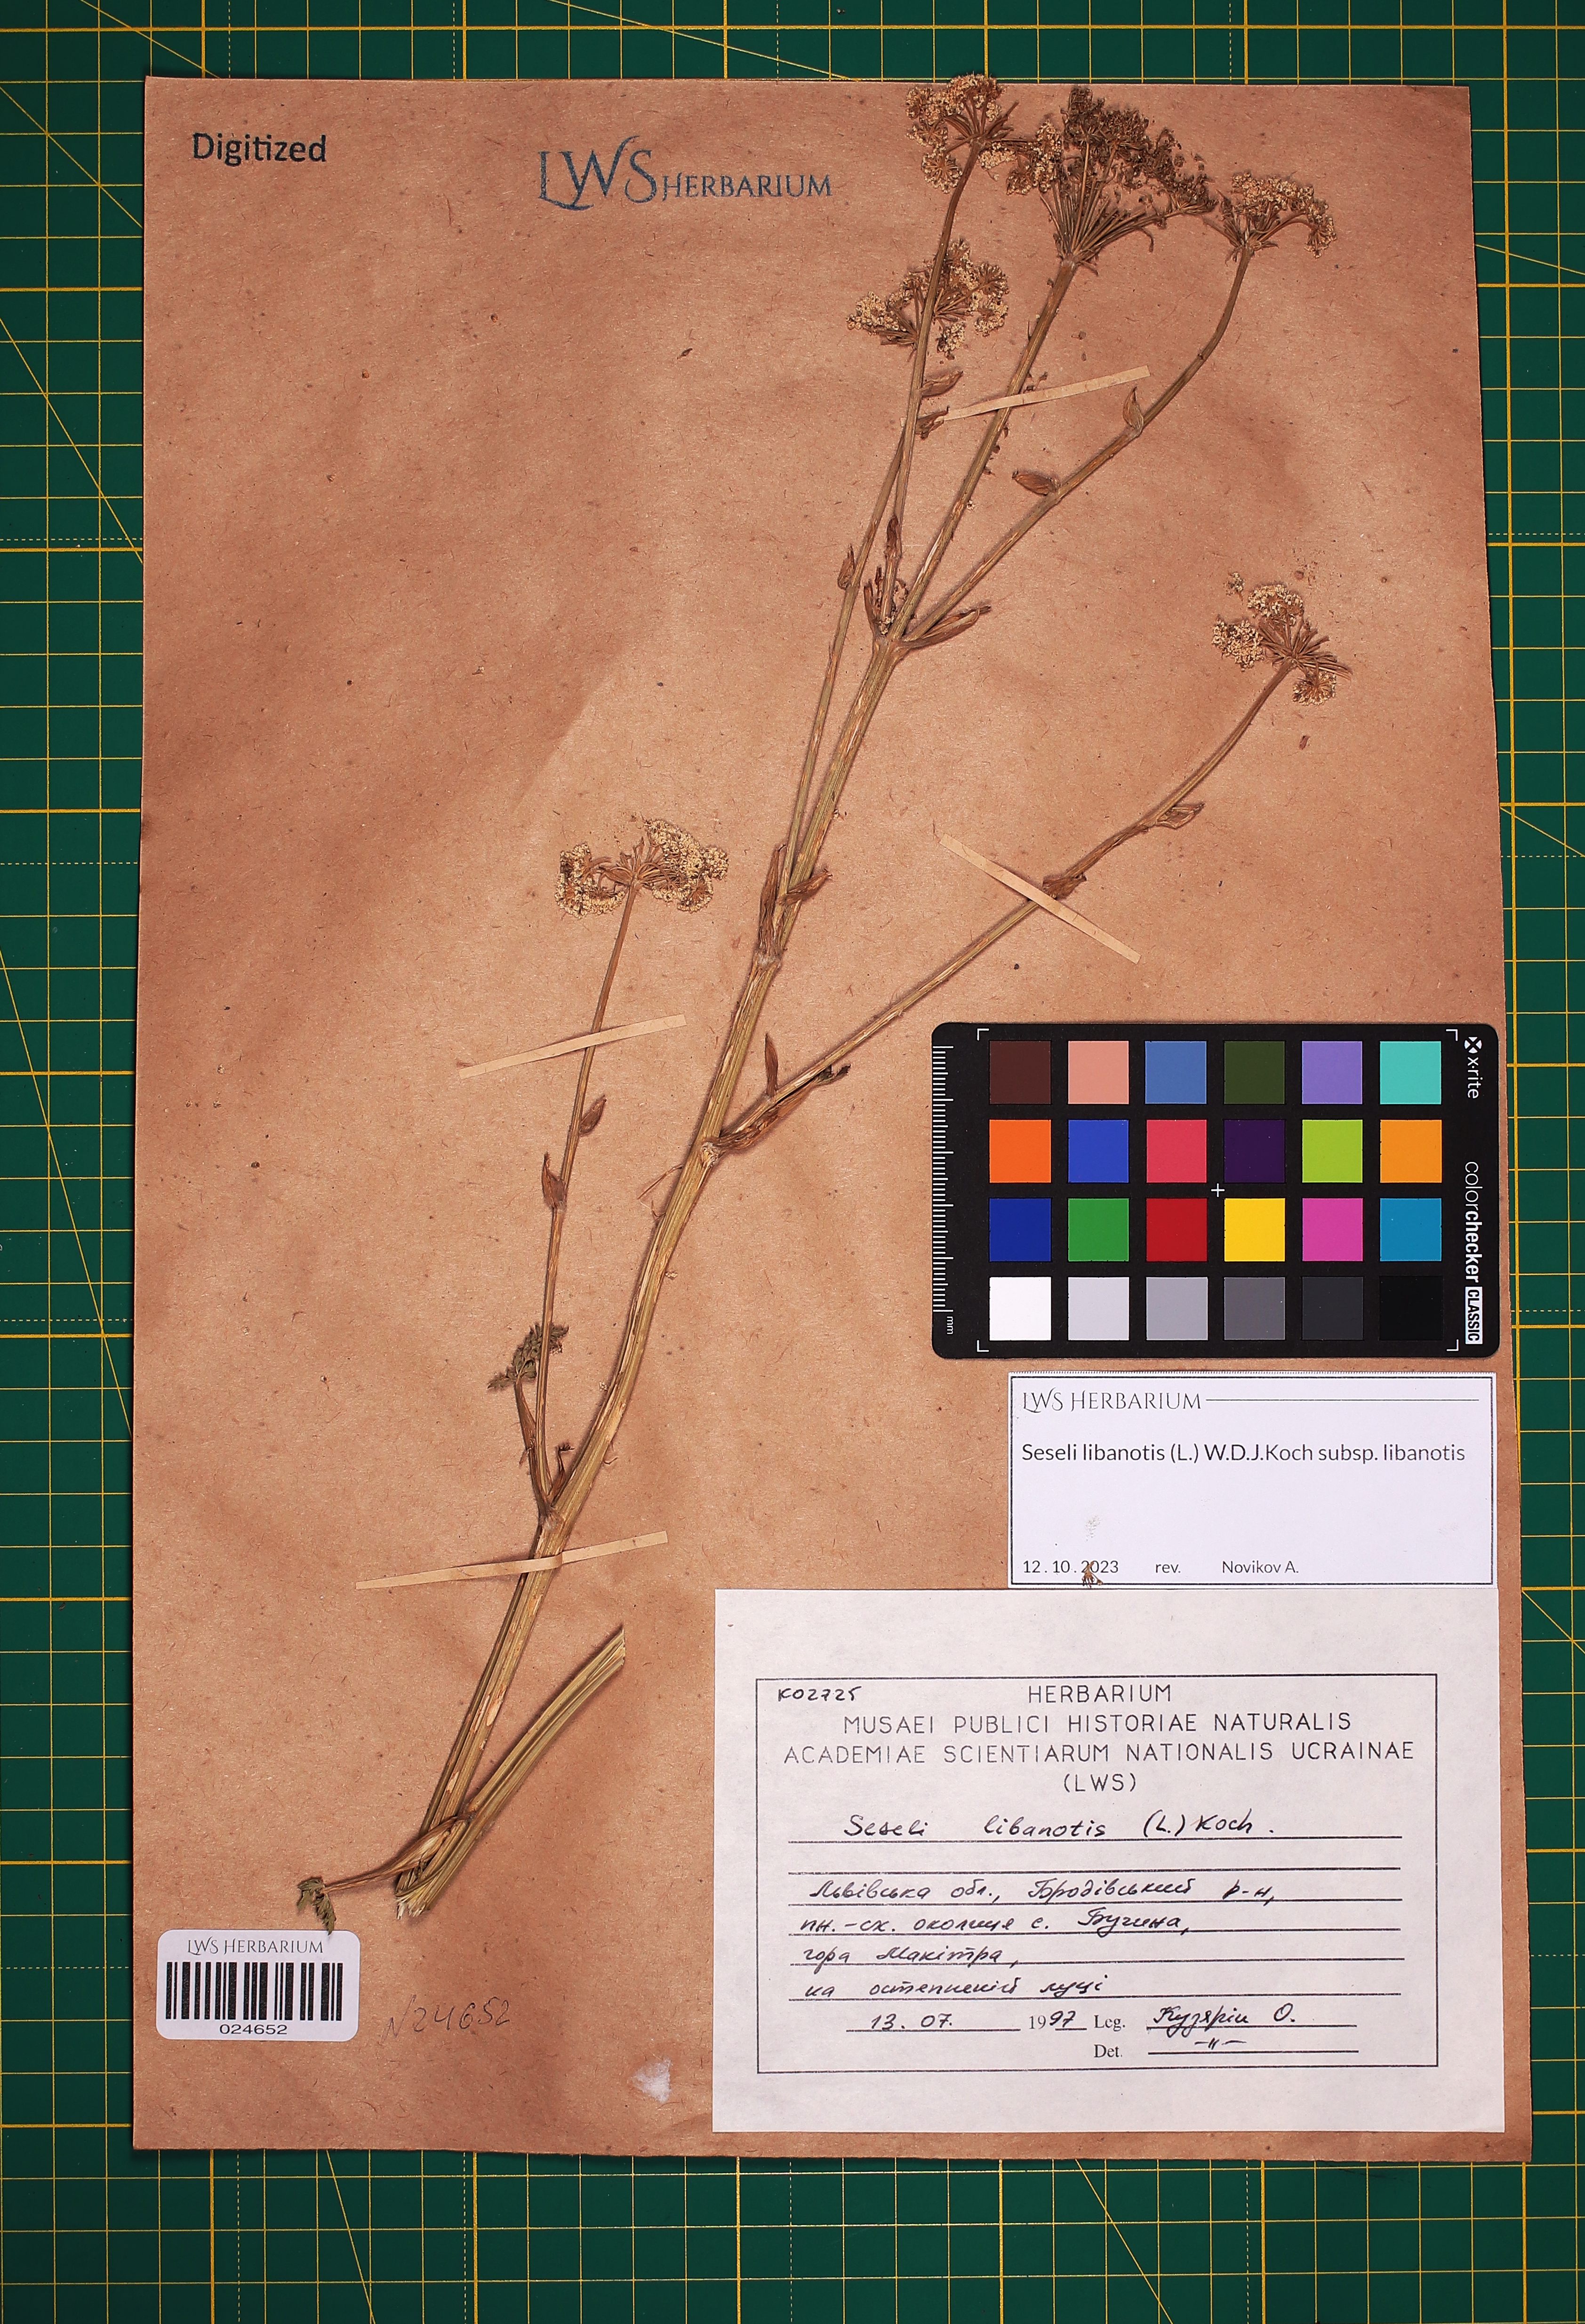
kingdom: Plantae
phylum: Tracheophyta
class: Magnoliopsida
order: Apiales
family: Apiaceae
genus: Seseli
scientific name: Seseli libanotis
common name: Mooncarrot
